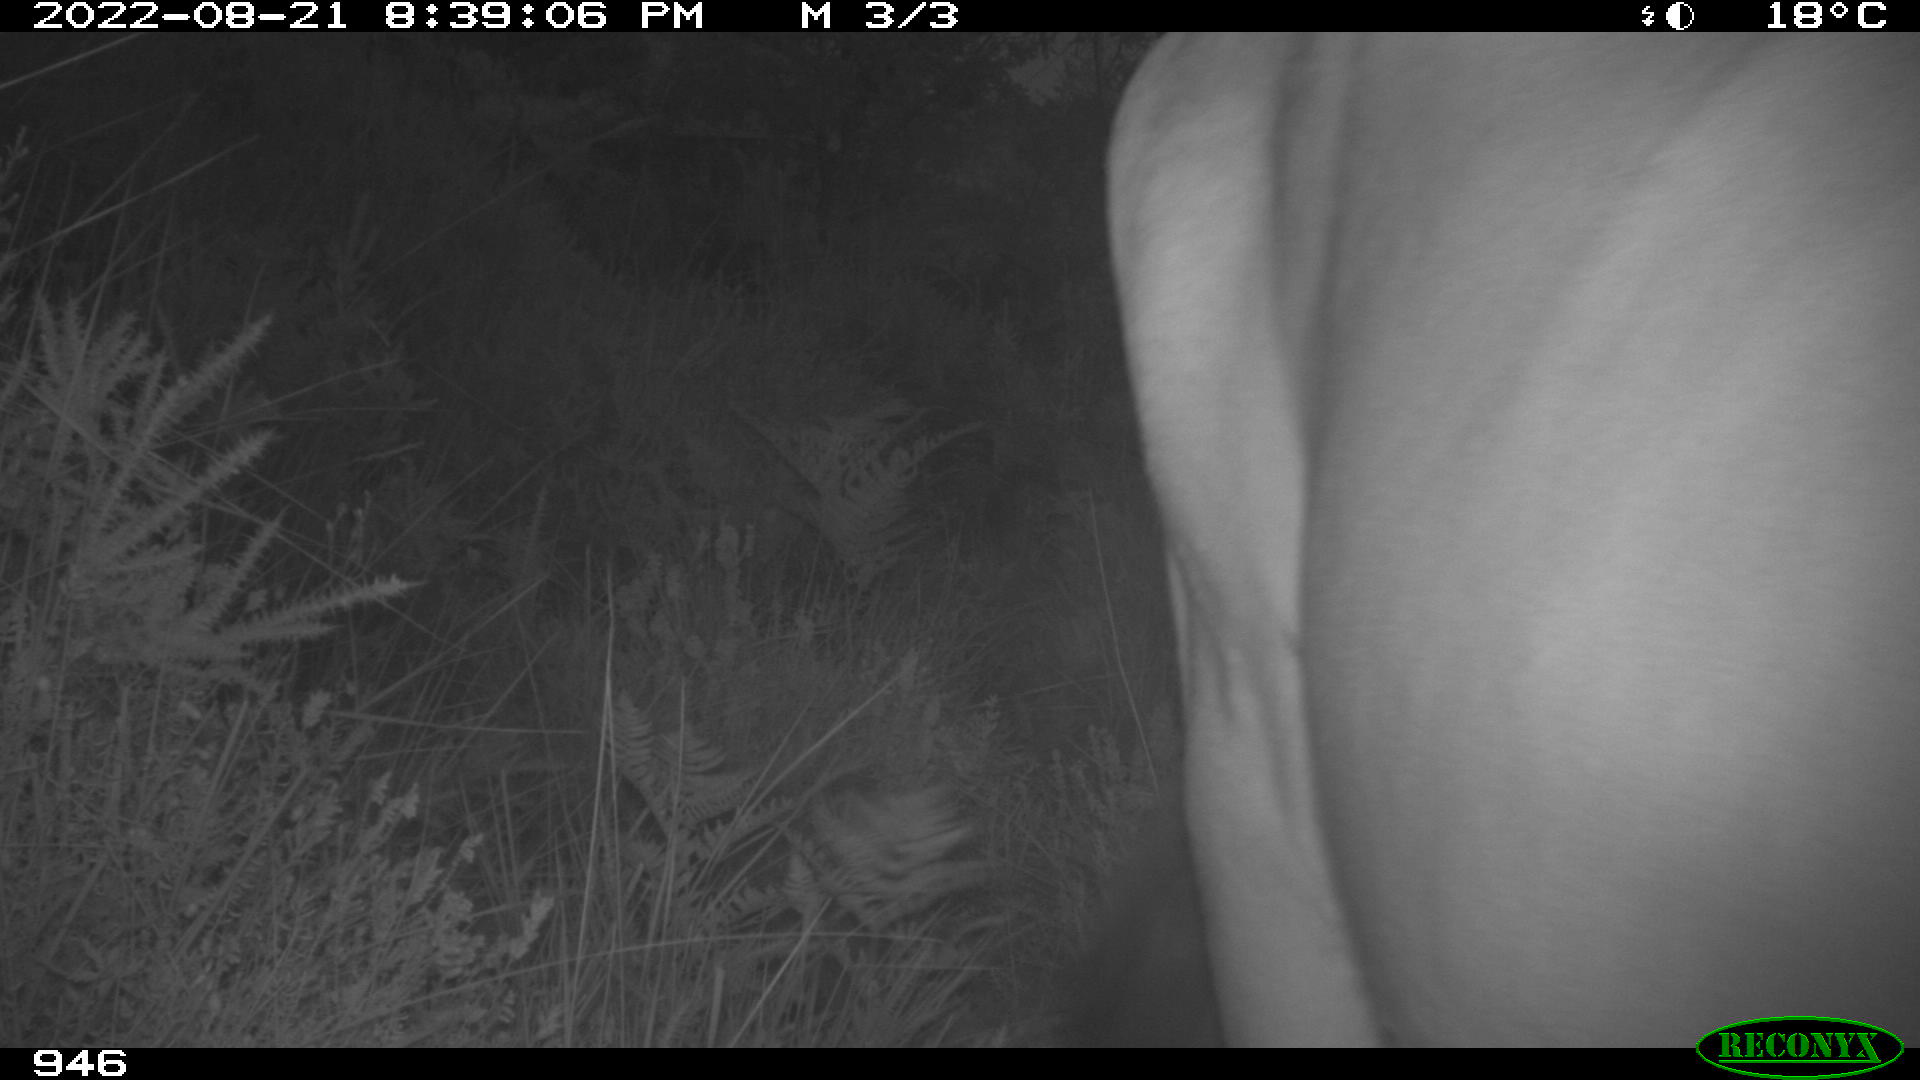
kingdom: Animalia
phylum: Chordata
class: Mammalia
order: Artiodactyla
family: Bovidae
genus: Bos
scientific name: Bos taurus
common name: Domesticated cattle
